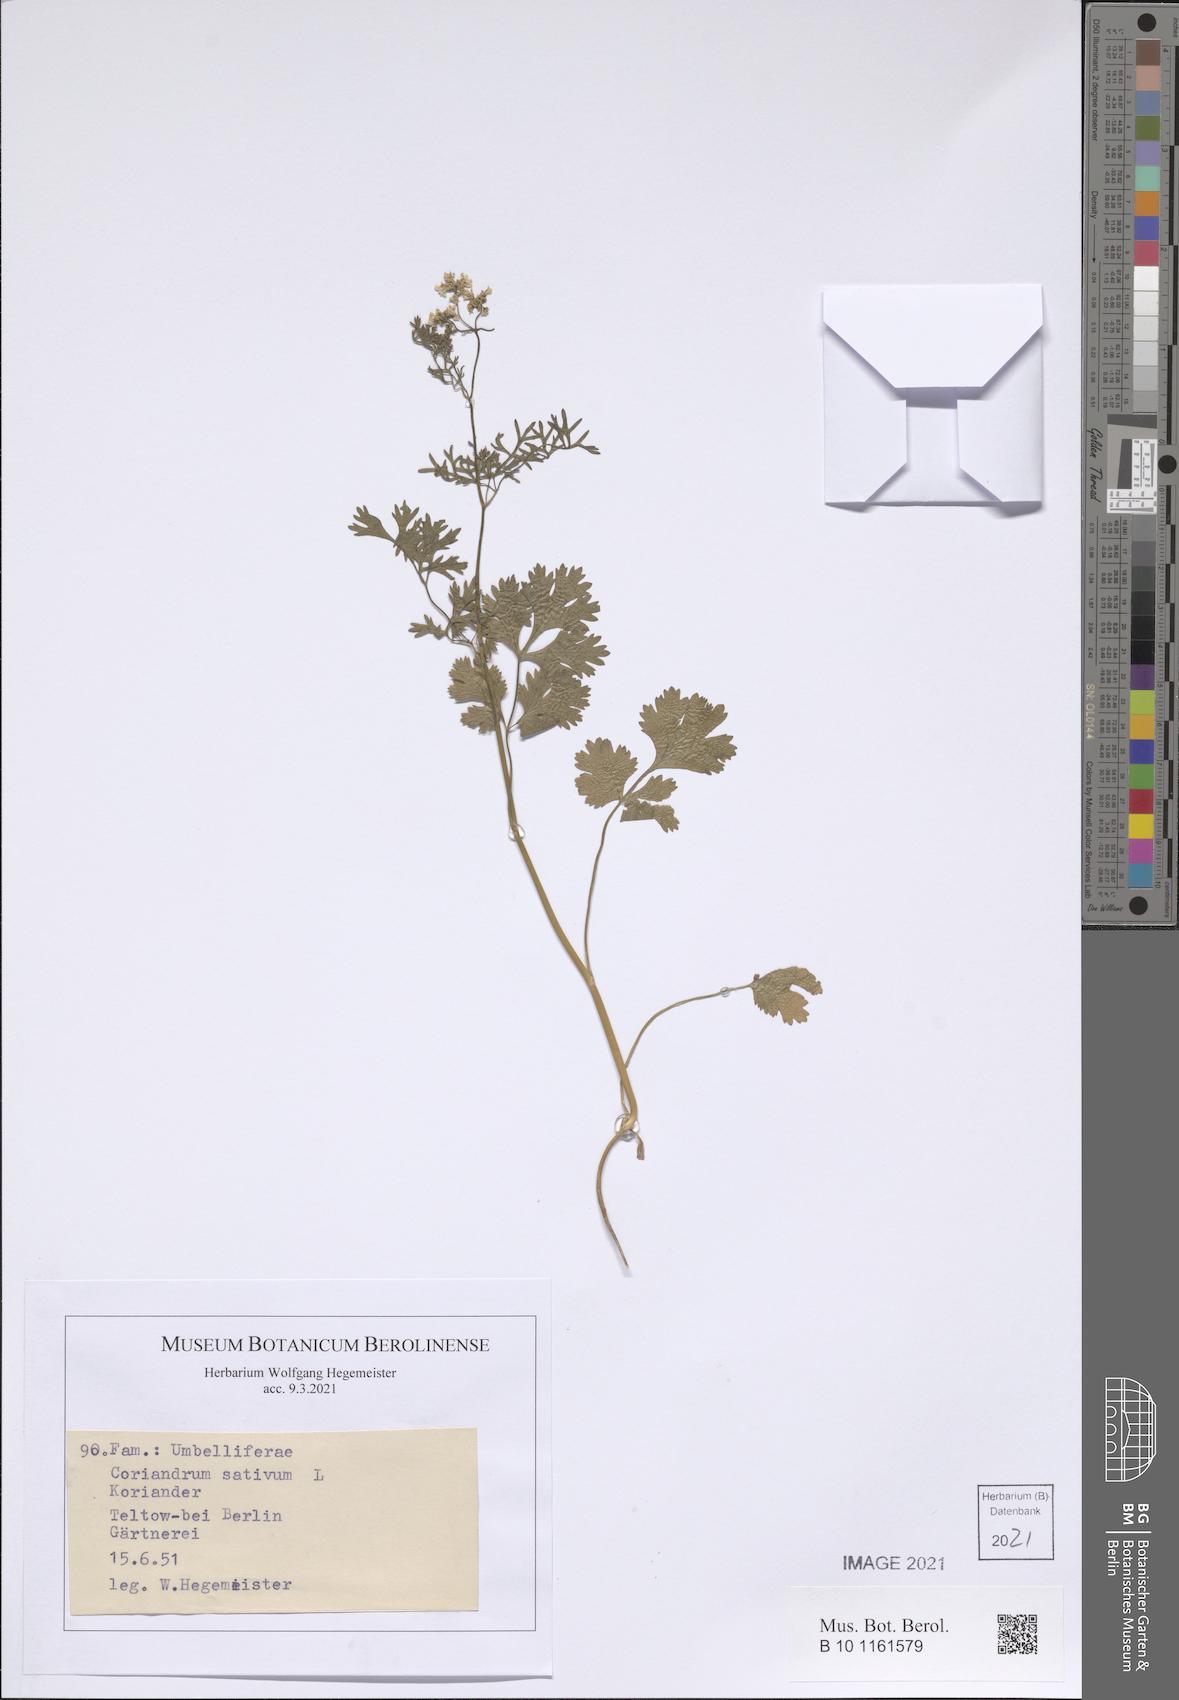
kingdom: Plantae
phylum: Tracheophyta
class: Magnoliopsida
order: Apiales
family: Apiaceae
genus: Coriandrum
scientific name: Coriandrum sativum
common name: Coriander
